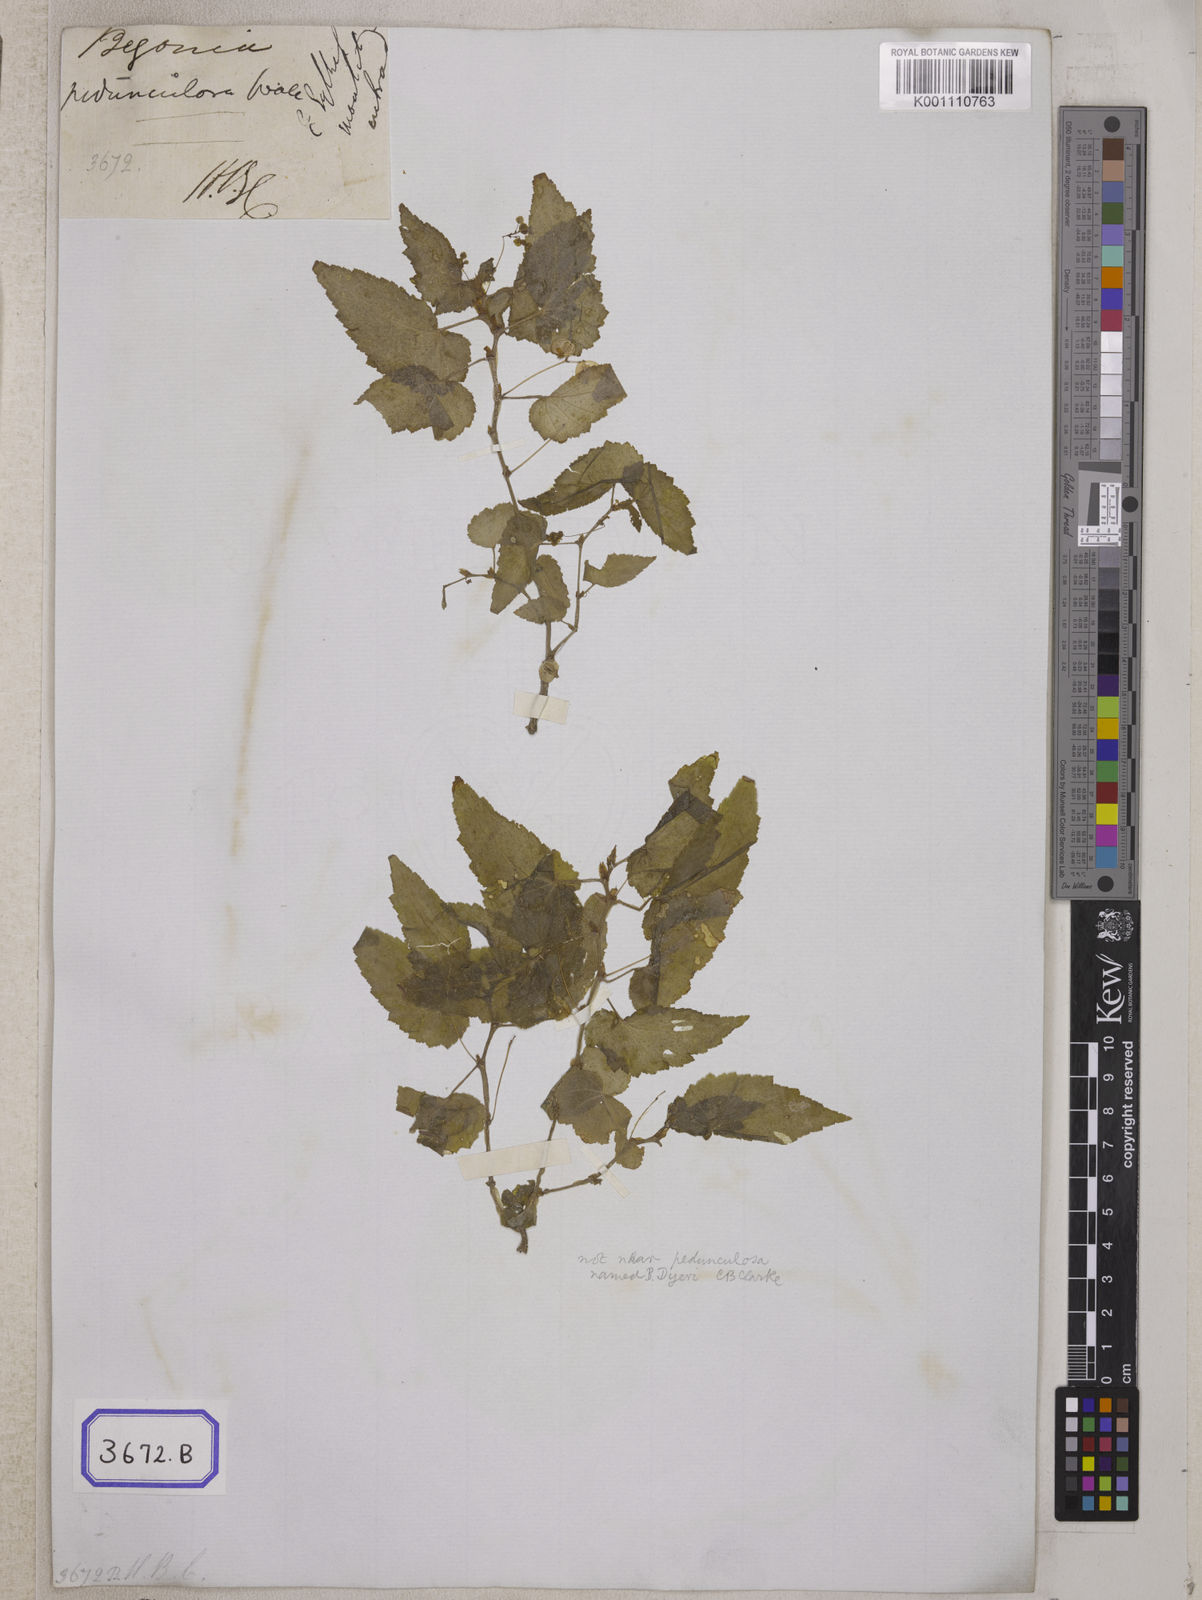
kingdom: Plantae
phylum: Tracheophyta
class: Magnoliopsida
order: Cucurbitales
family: Begoniaceae
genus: Begonia
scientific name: Begonia pedunculosa
